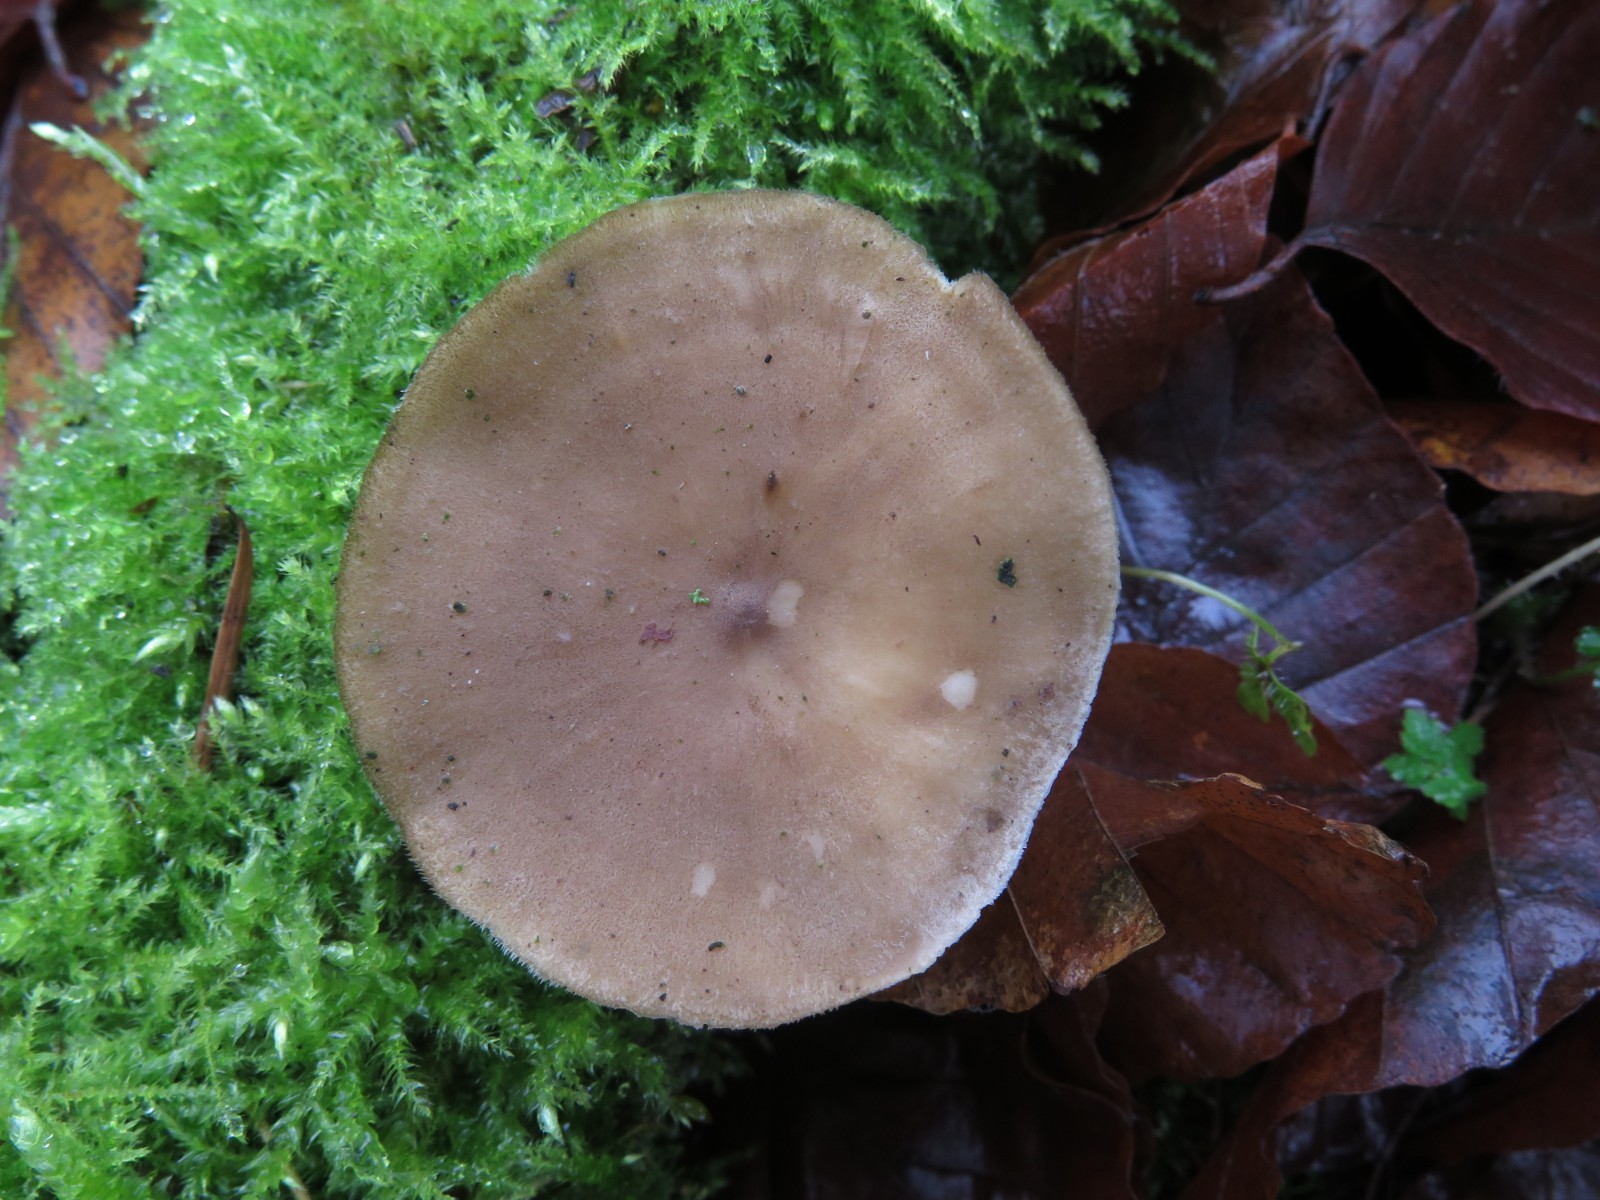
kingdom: Fungi
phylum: Basidiomycota
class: Agaricomycetes
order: Polyporales
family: Polyporaceae
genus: Lentinus
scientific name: Lentinus brumalis
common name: vinter-stilkporesvamp
